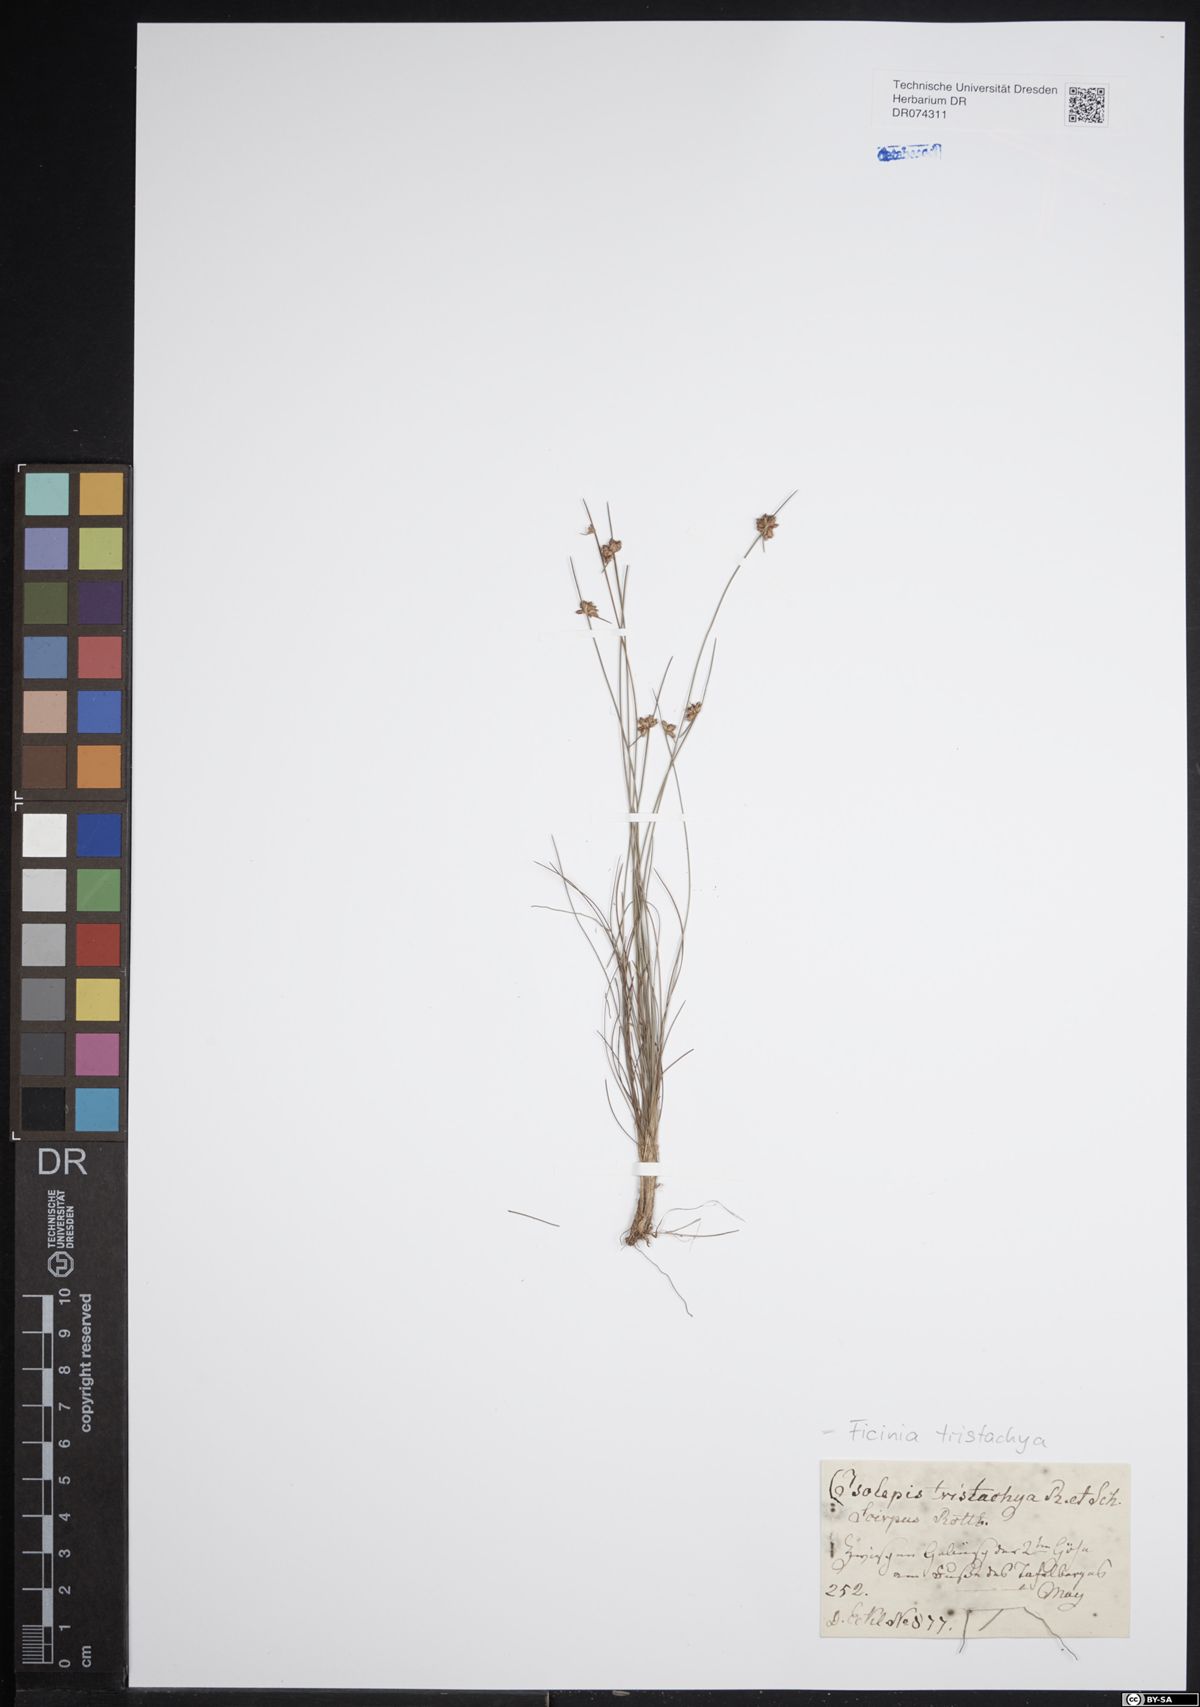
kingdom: Plantae
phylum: Tracheophyta
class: Liliopsida
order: Poales
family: Cyperaceae
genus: Ficinia
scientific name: Ficinia tristachya
